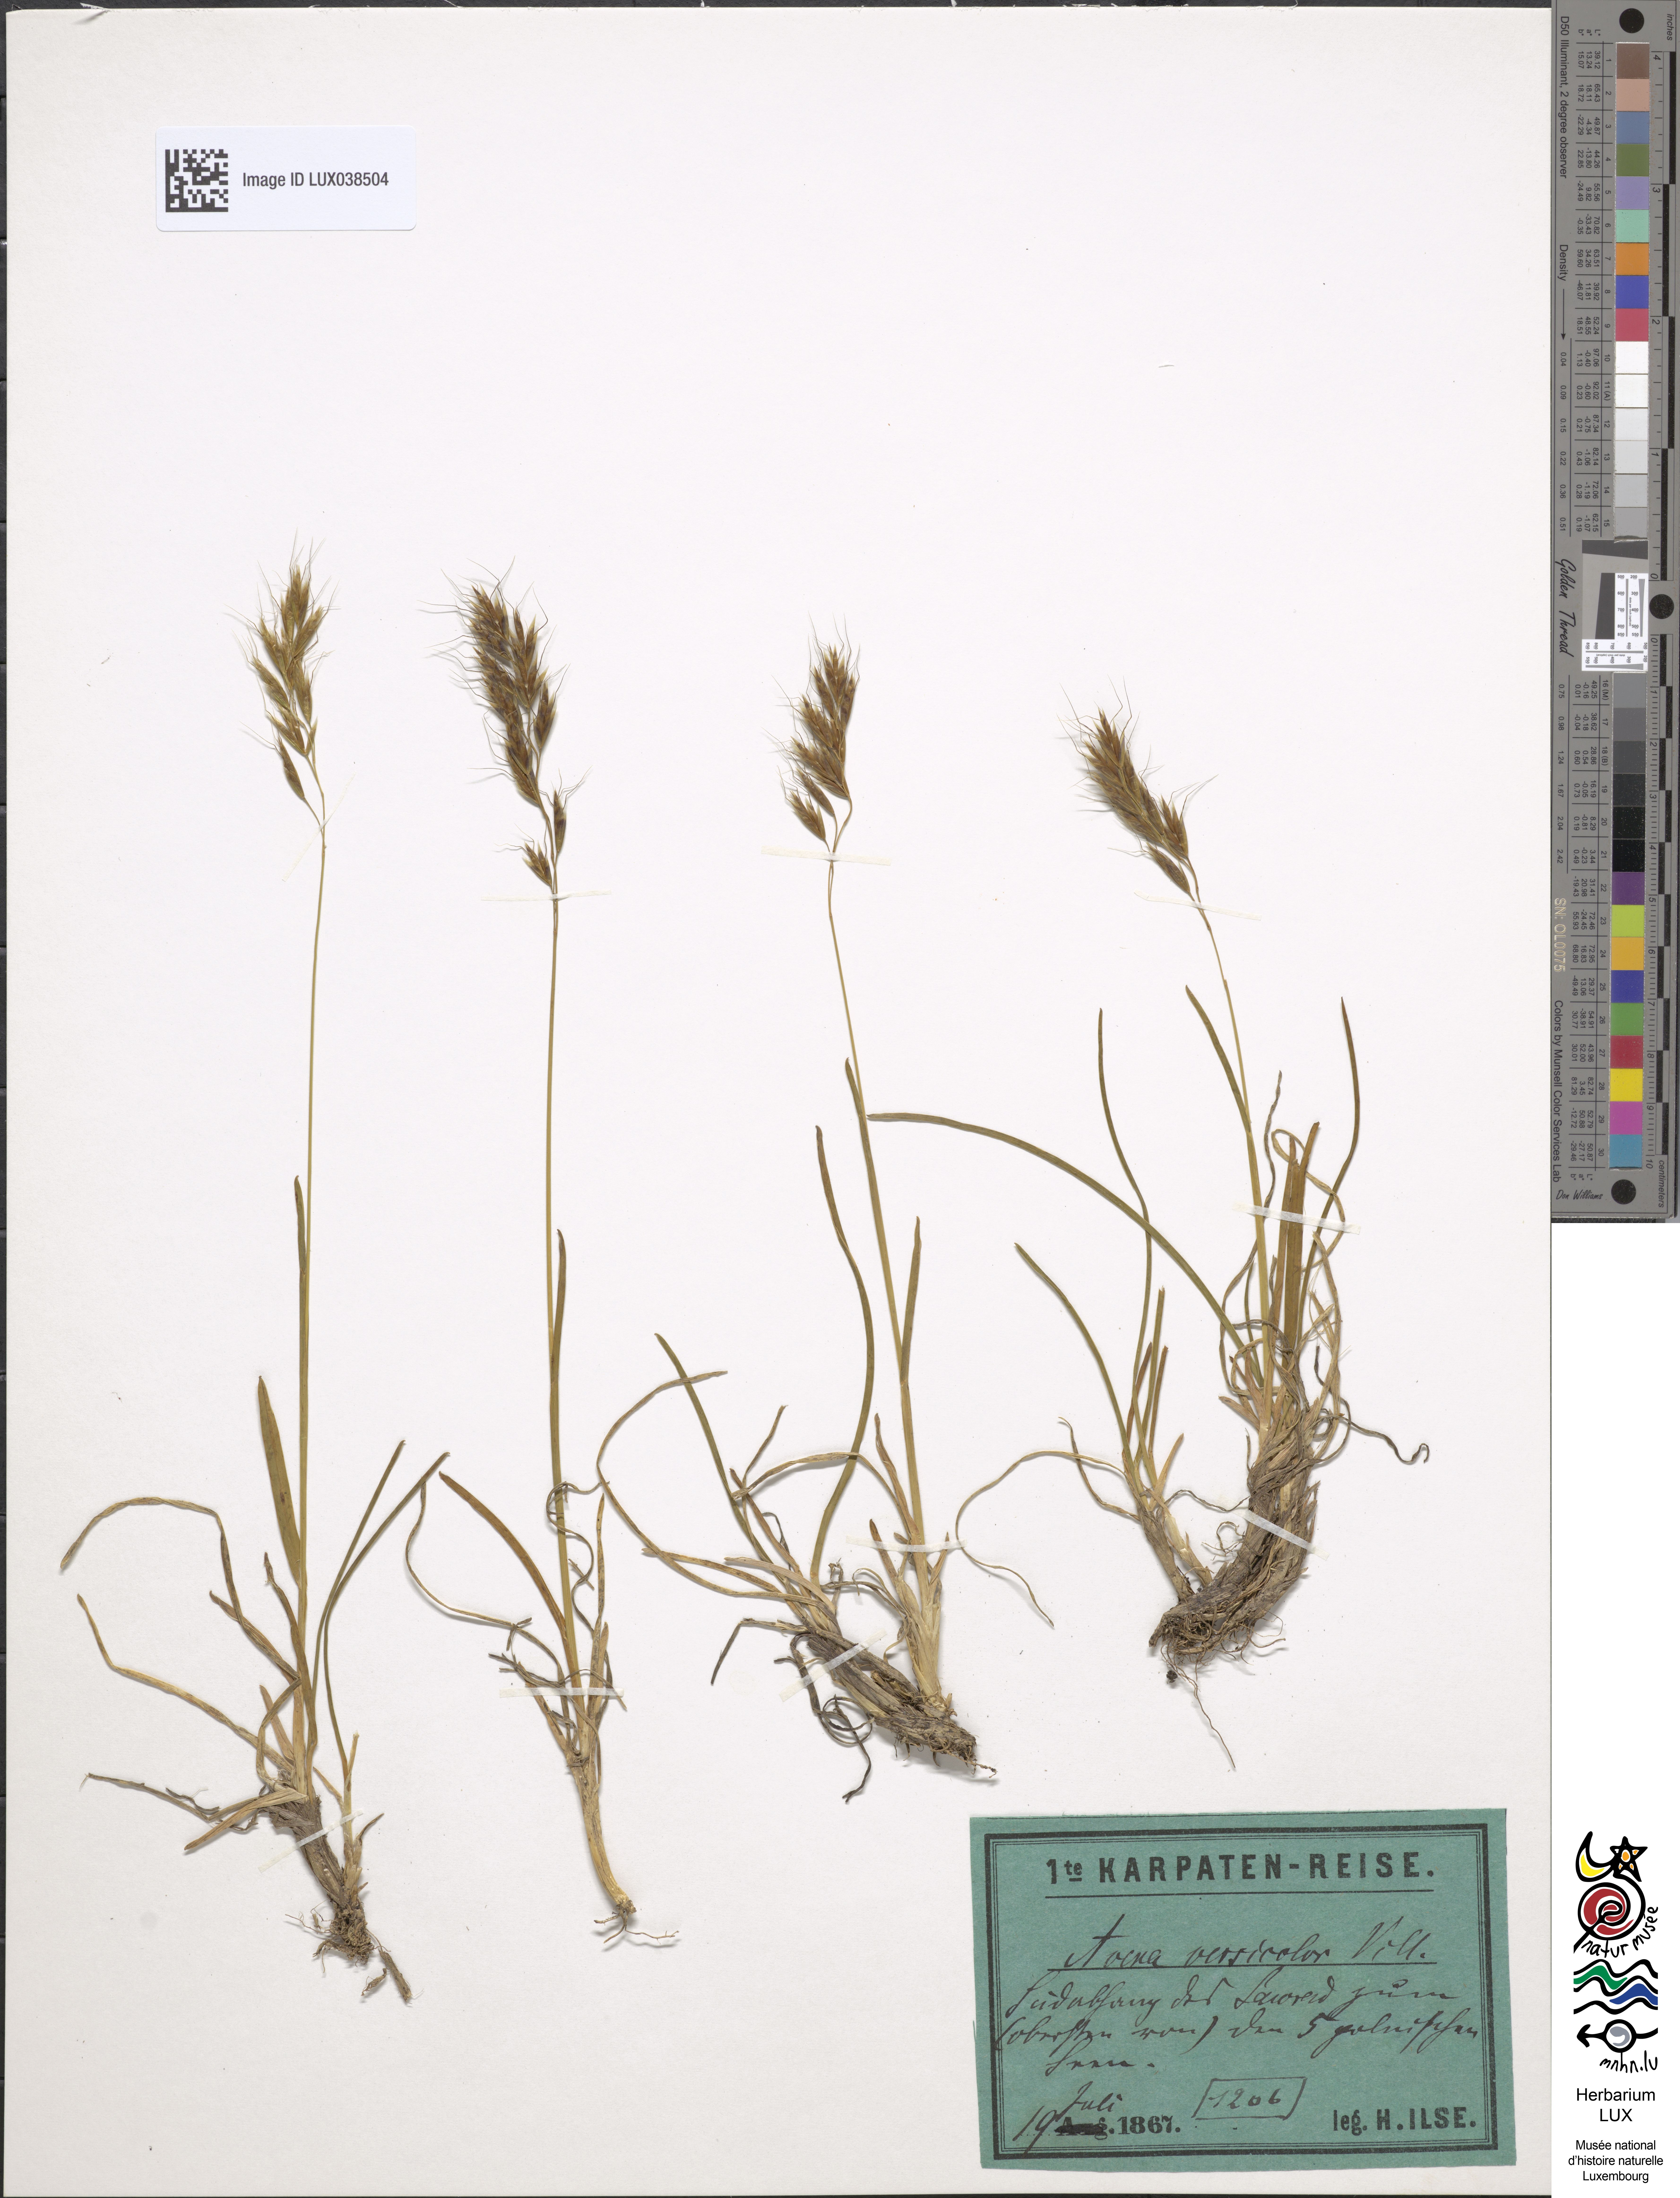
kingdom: Plantae
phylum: Tracheophyta
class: Liliopsida
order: Poales
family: Poaceae
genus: Helictochloa
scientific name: Helictochloa versicolor
